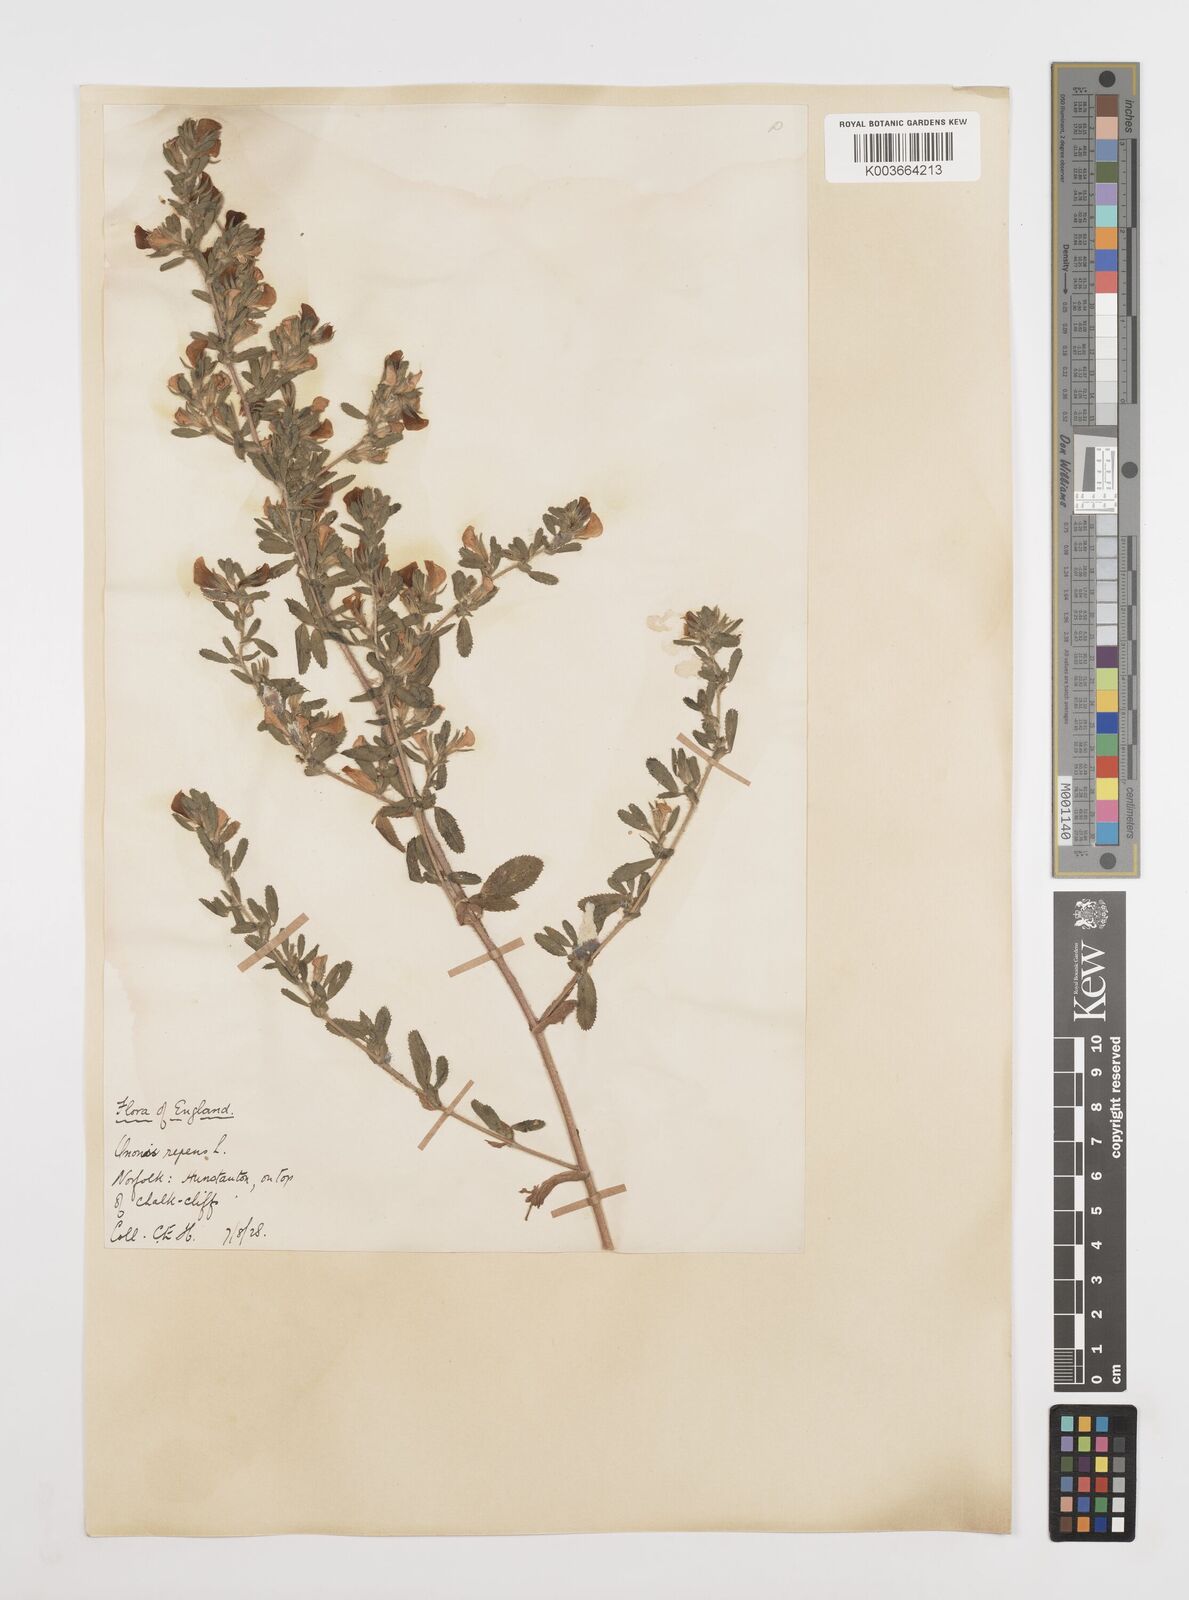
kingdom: Plantae
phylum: Tracheophyta
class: Magnoliopsida
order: Fabales
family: Fabaceae
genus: Ononis
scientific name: Ononis spinosa
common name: Spiny restharrow
